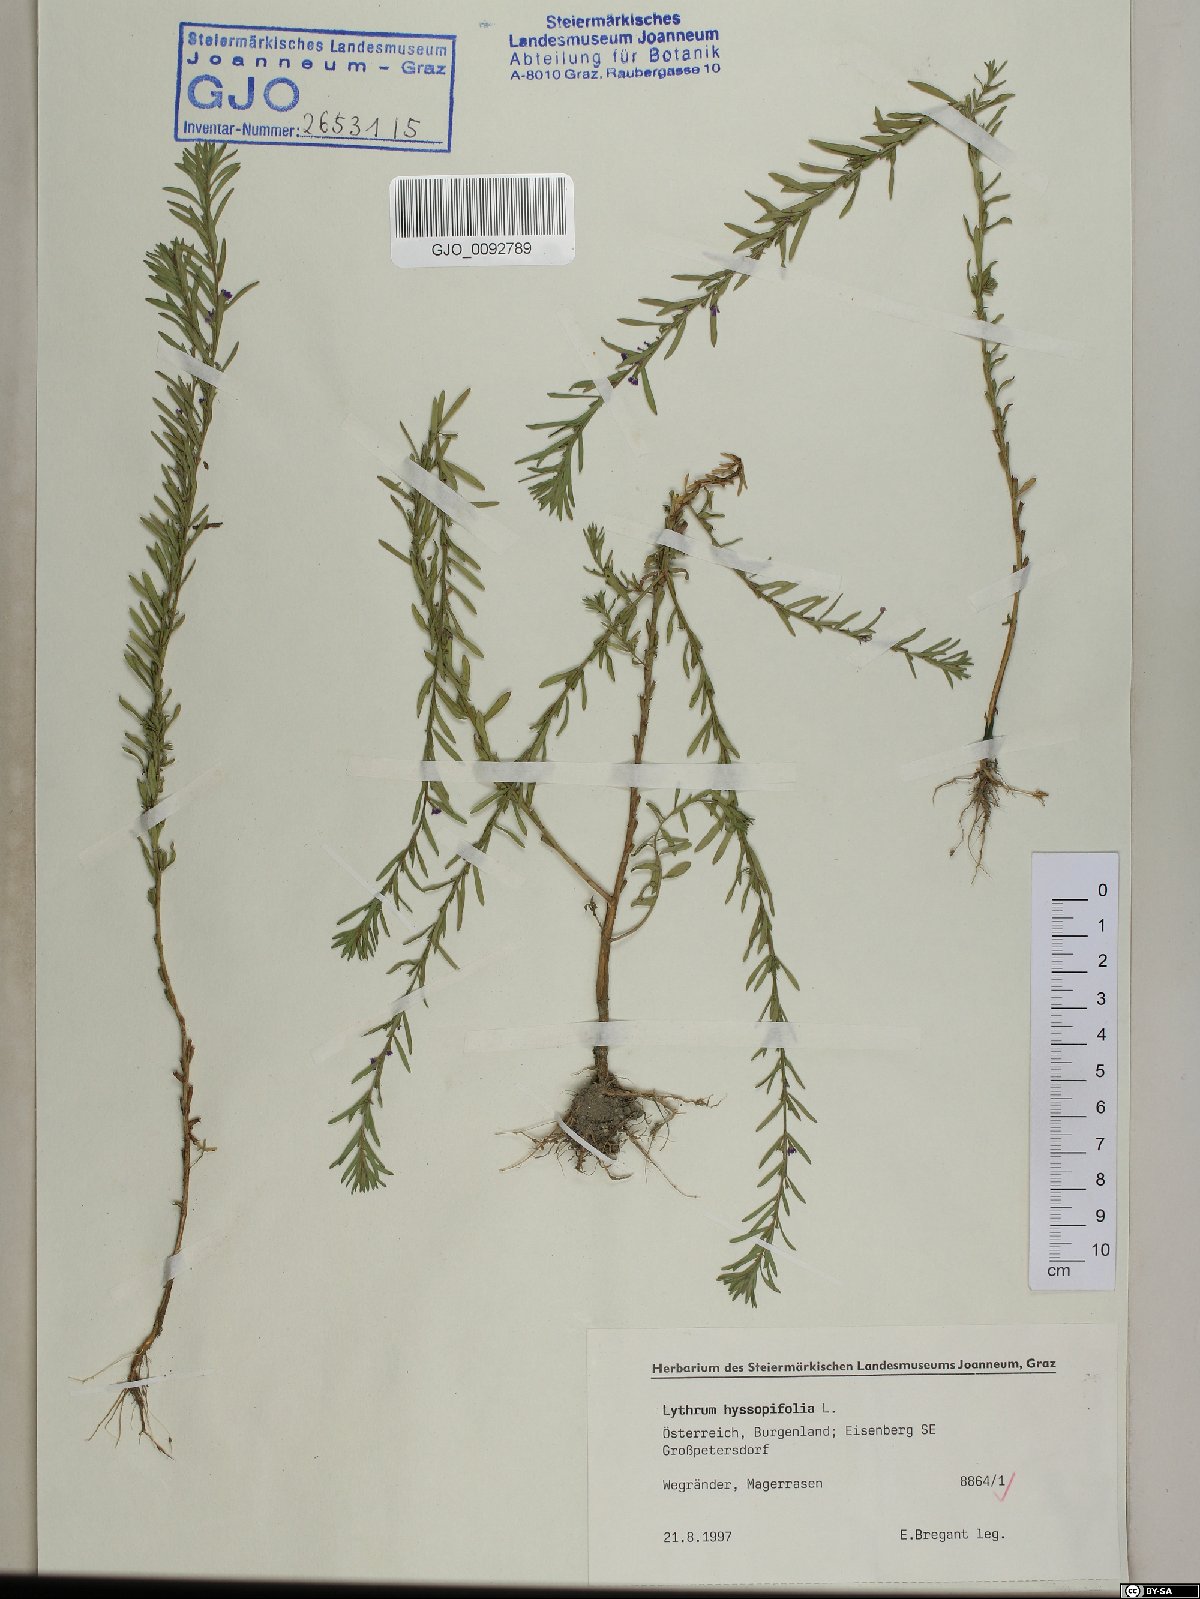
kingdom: Plantae
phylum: Tracheophyta
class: Magnoliopsida
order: Myrtales
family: Lythraceae
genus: Lythrum
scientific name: Lythrum hyssopifolia
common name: Grass-poly
